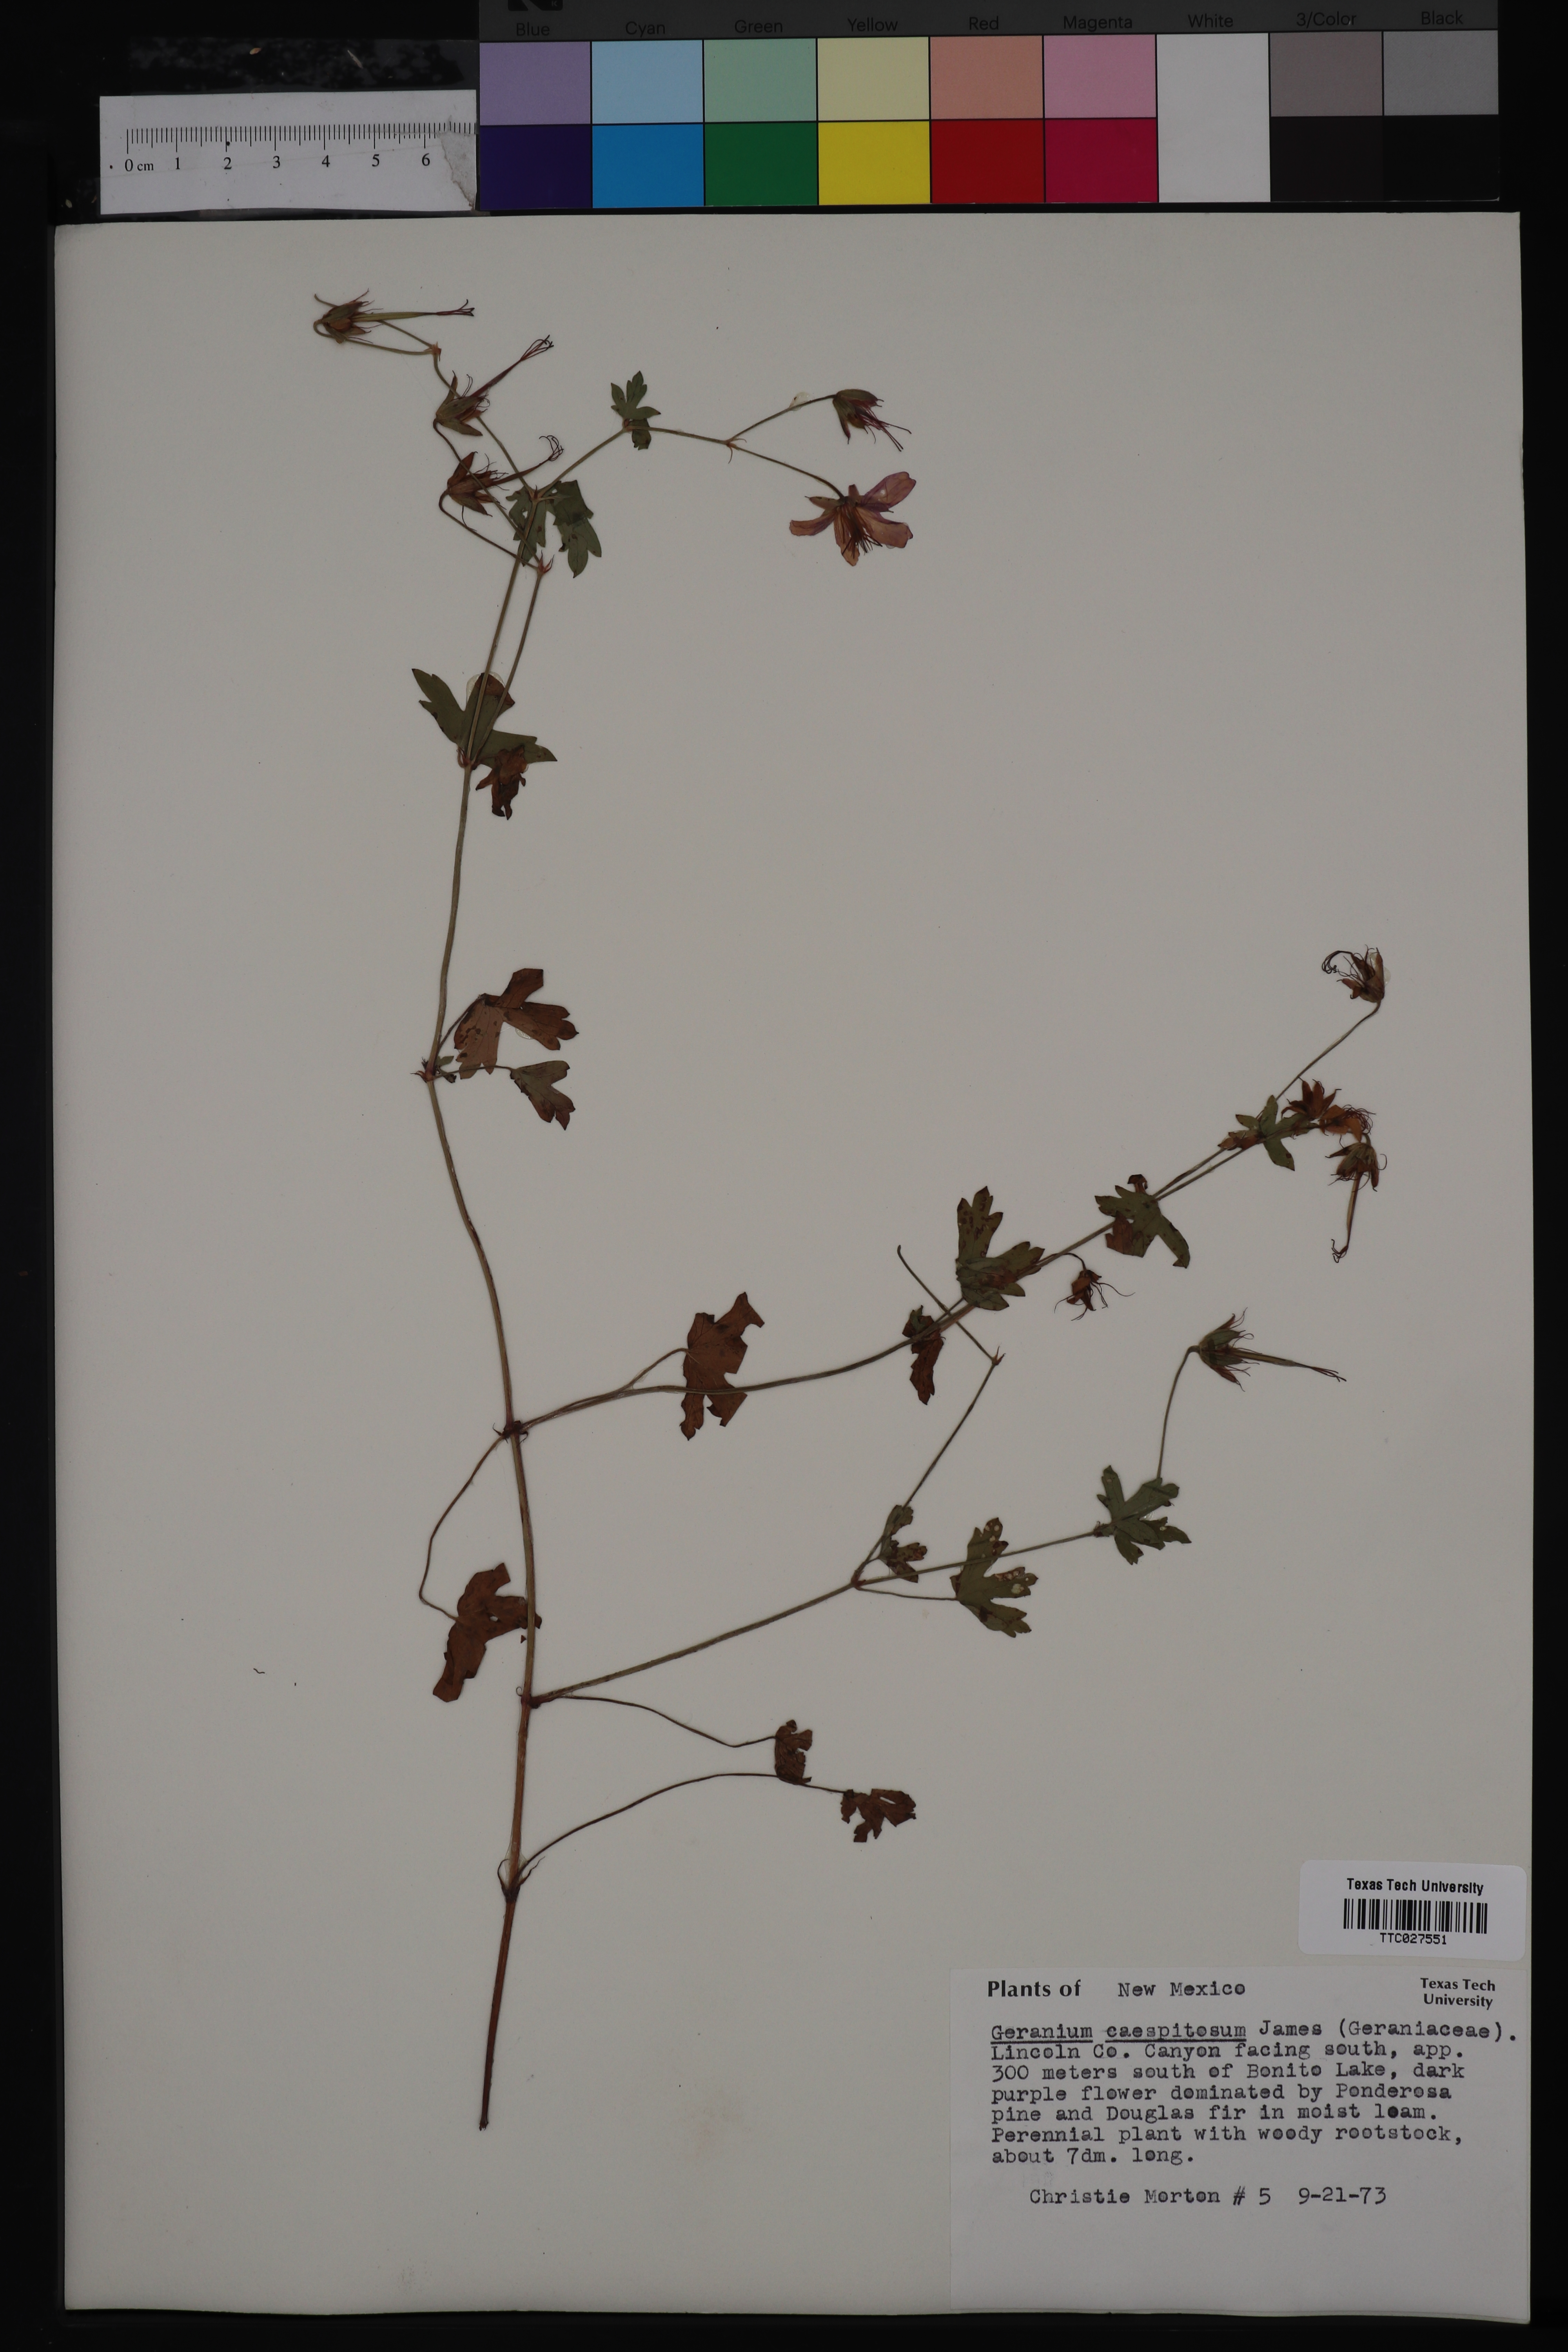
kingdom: Plantae
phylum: Tracheophyta
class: Magnoliopsida
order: Geraniales
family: Geraniaceae
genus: Geranium
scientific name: Geranium caespitosum
